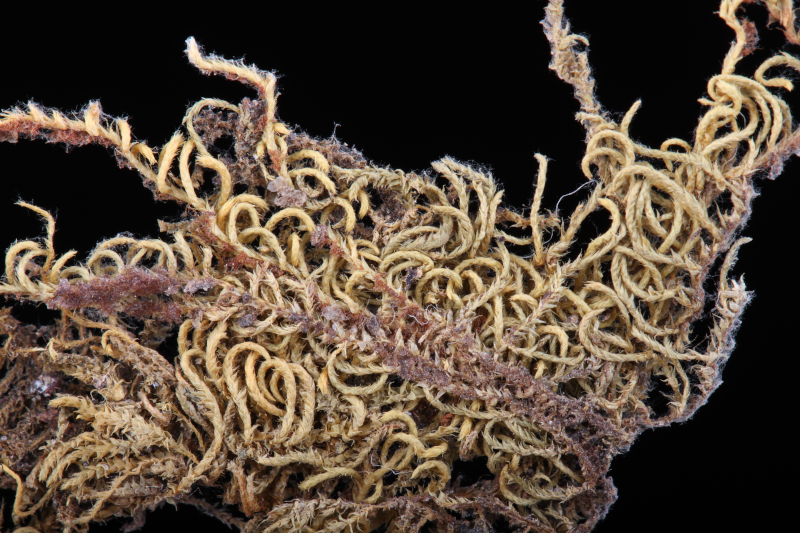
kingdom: Plantae
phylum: Bryophyta
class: Bryopsida
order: Hypnales
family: Pylaisiadelphaceae
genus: Trachyphyllum
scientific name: Trachyphyllum inflexum
